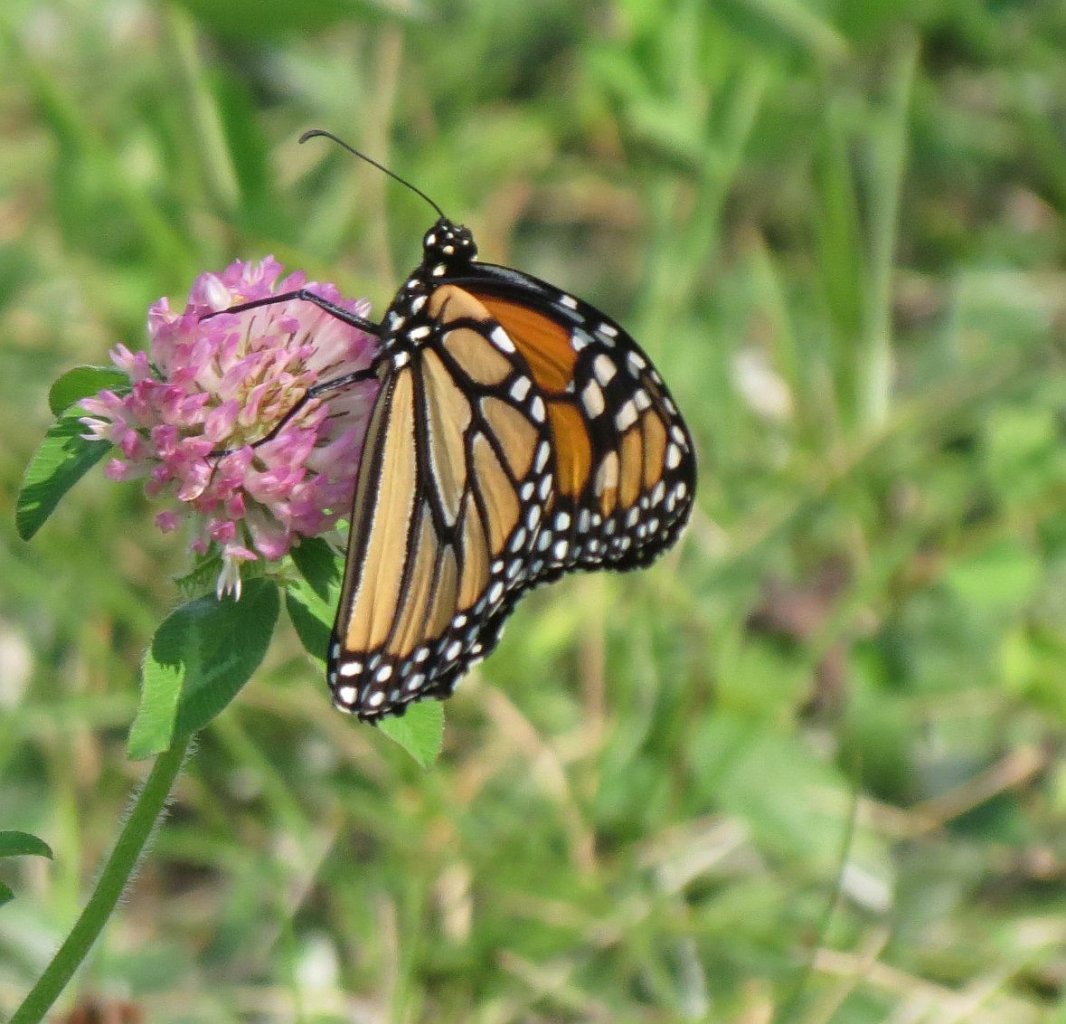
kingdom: Animalia
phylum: Arthropoda
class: Insecta
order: Lepidoptera
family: Nymphalidae
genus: Danaus
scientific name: Danaus plexippus
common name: Monarch
